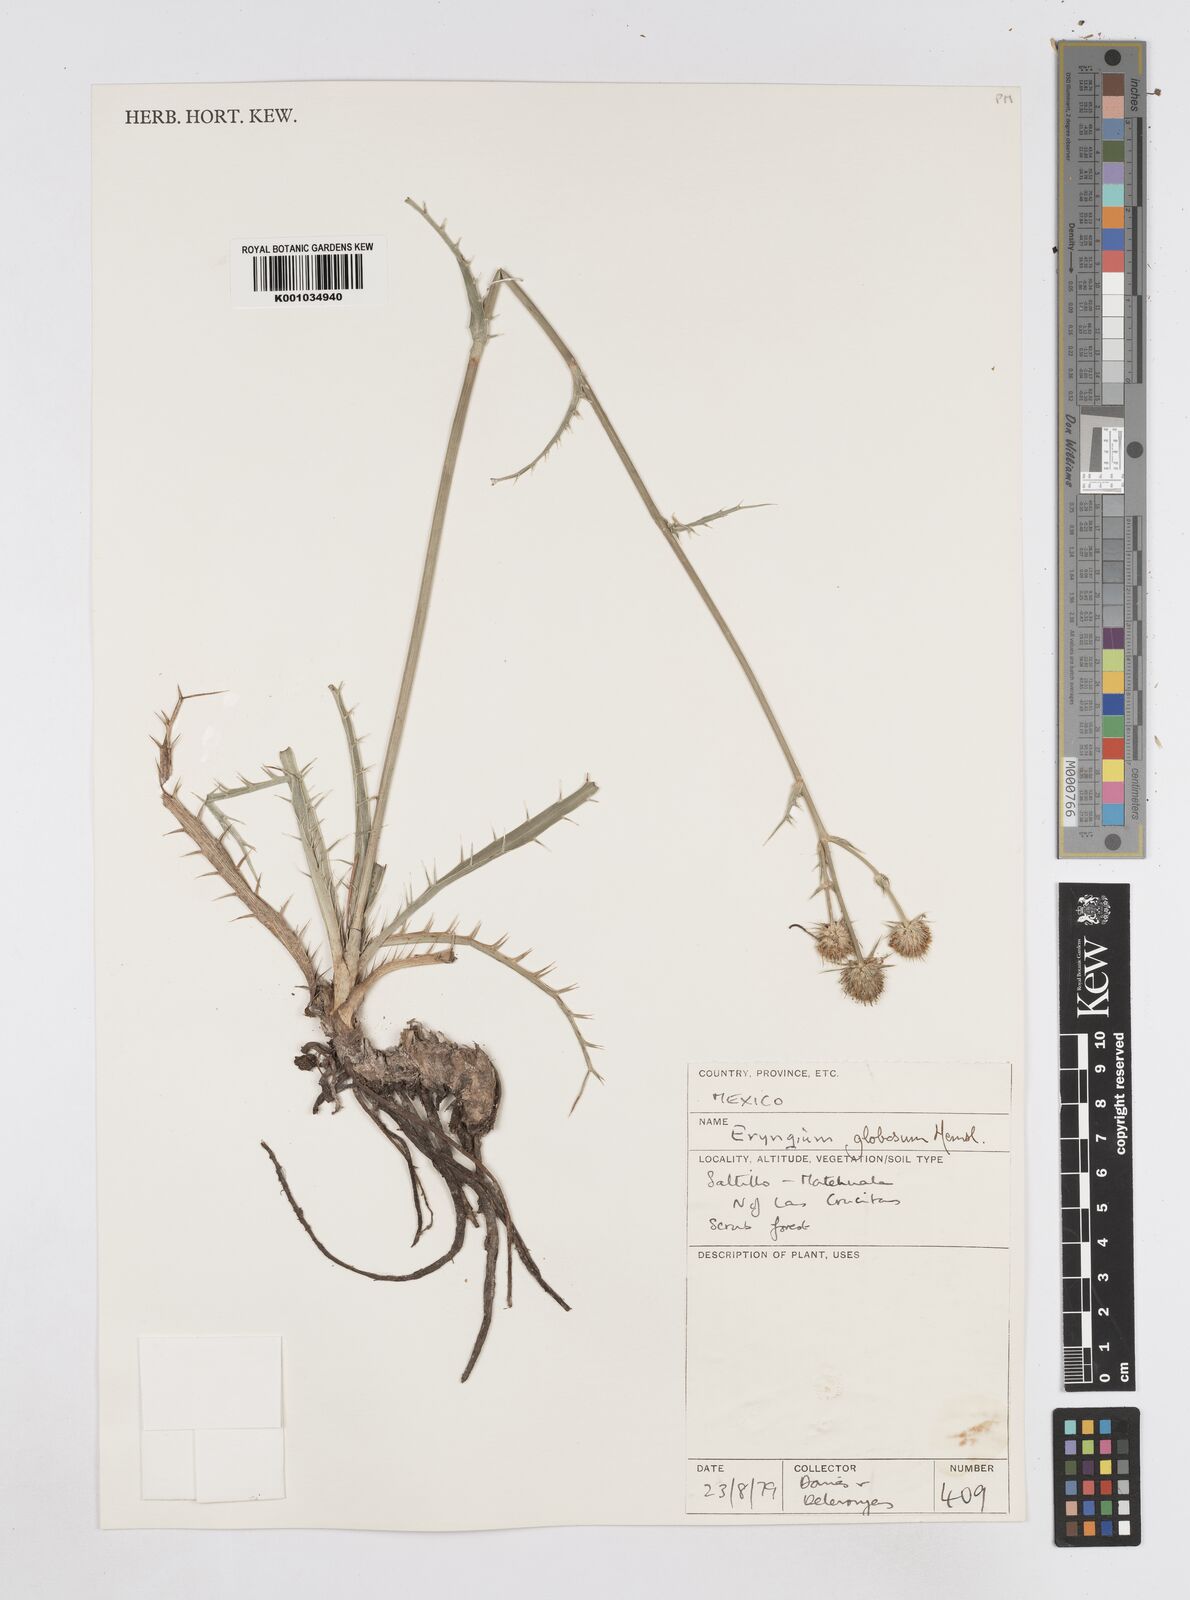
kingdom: Plantae
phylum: Tracheophyta
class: Magnoliopsida
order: Apiales
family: Apiaceae
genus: Eryngium
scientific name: Eryngium palmeri
